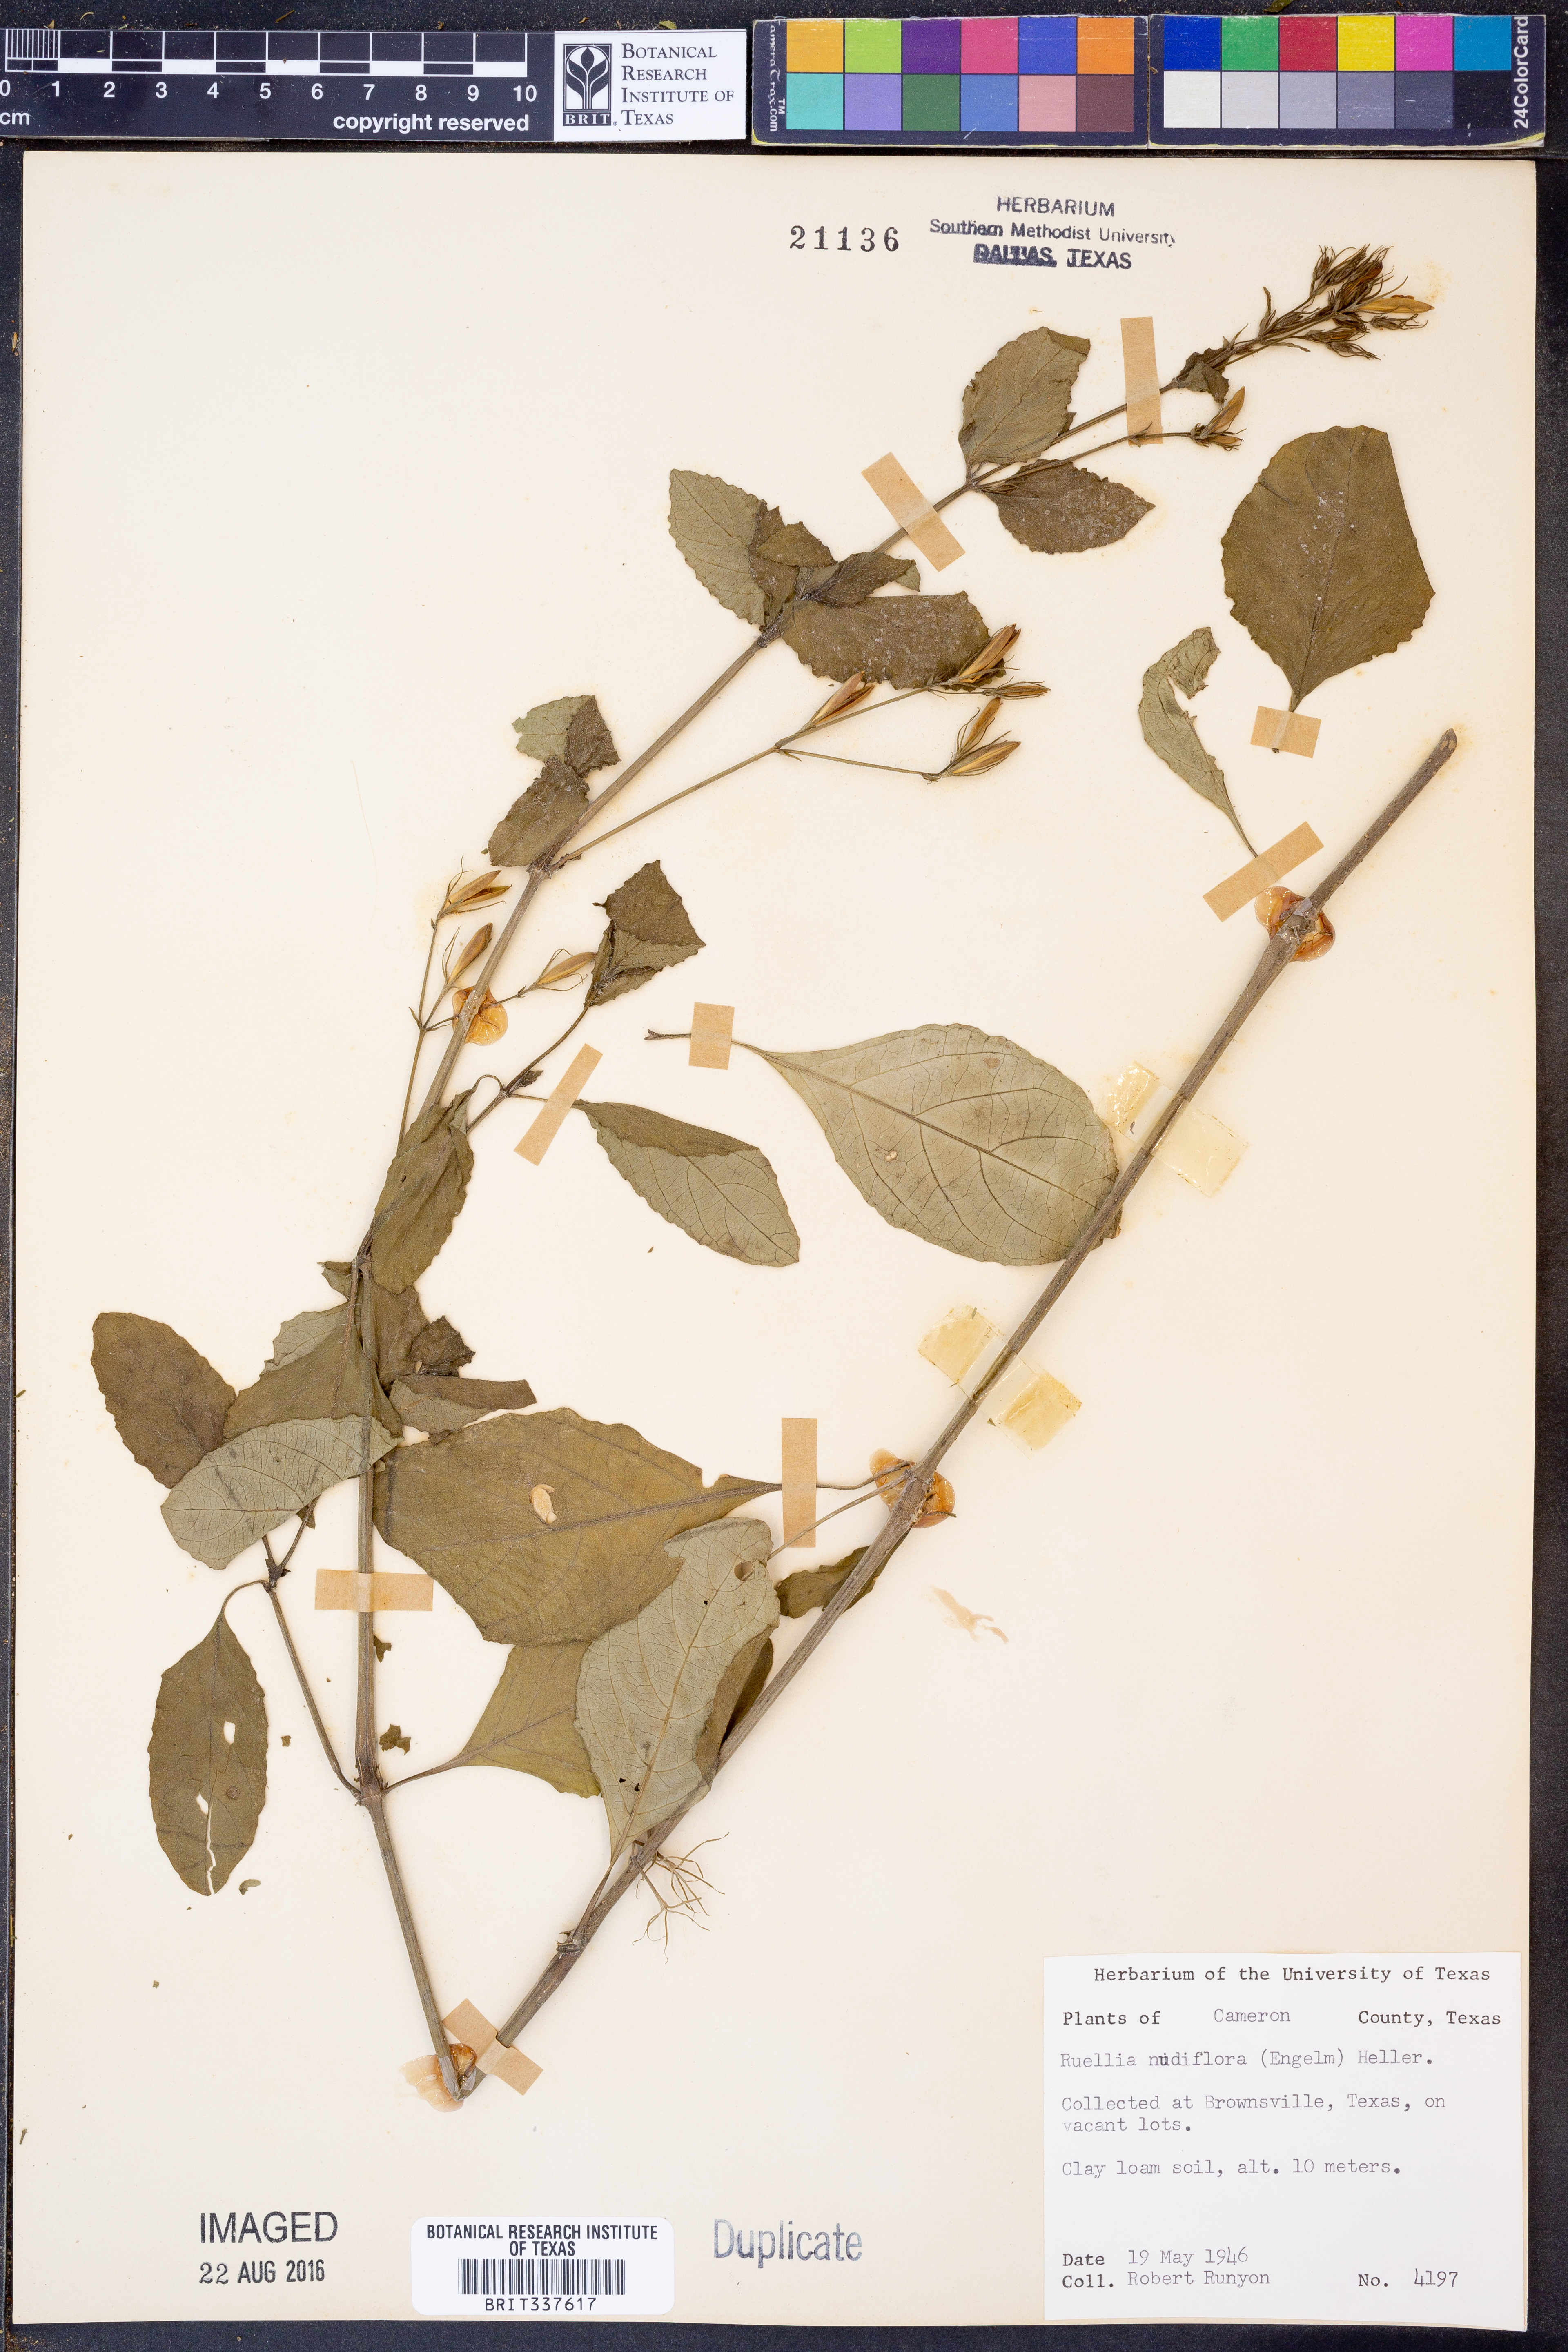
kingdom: Plantae
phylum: Tracheophyta
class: Magnoliopsida
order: Lamiales
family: Acanthaceae
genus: Ruellia
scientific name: Ruellia ciliatiflora
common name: Hairyflower wild petunia
